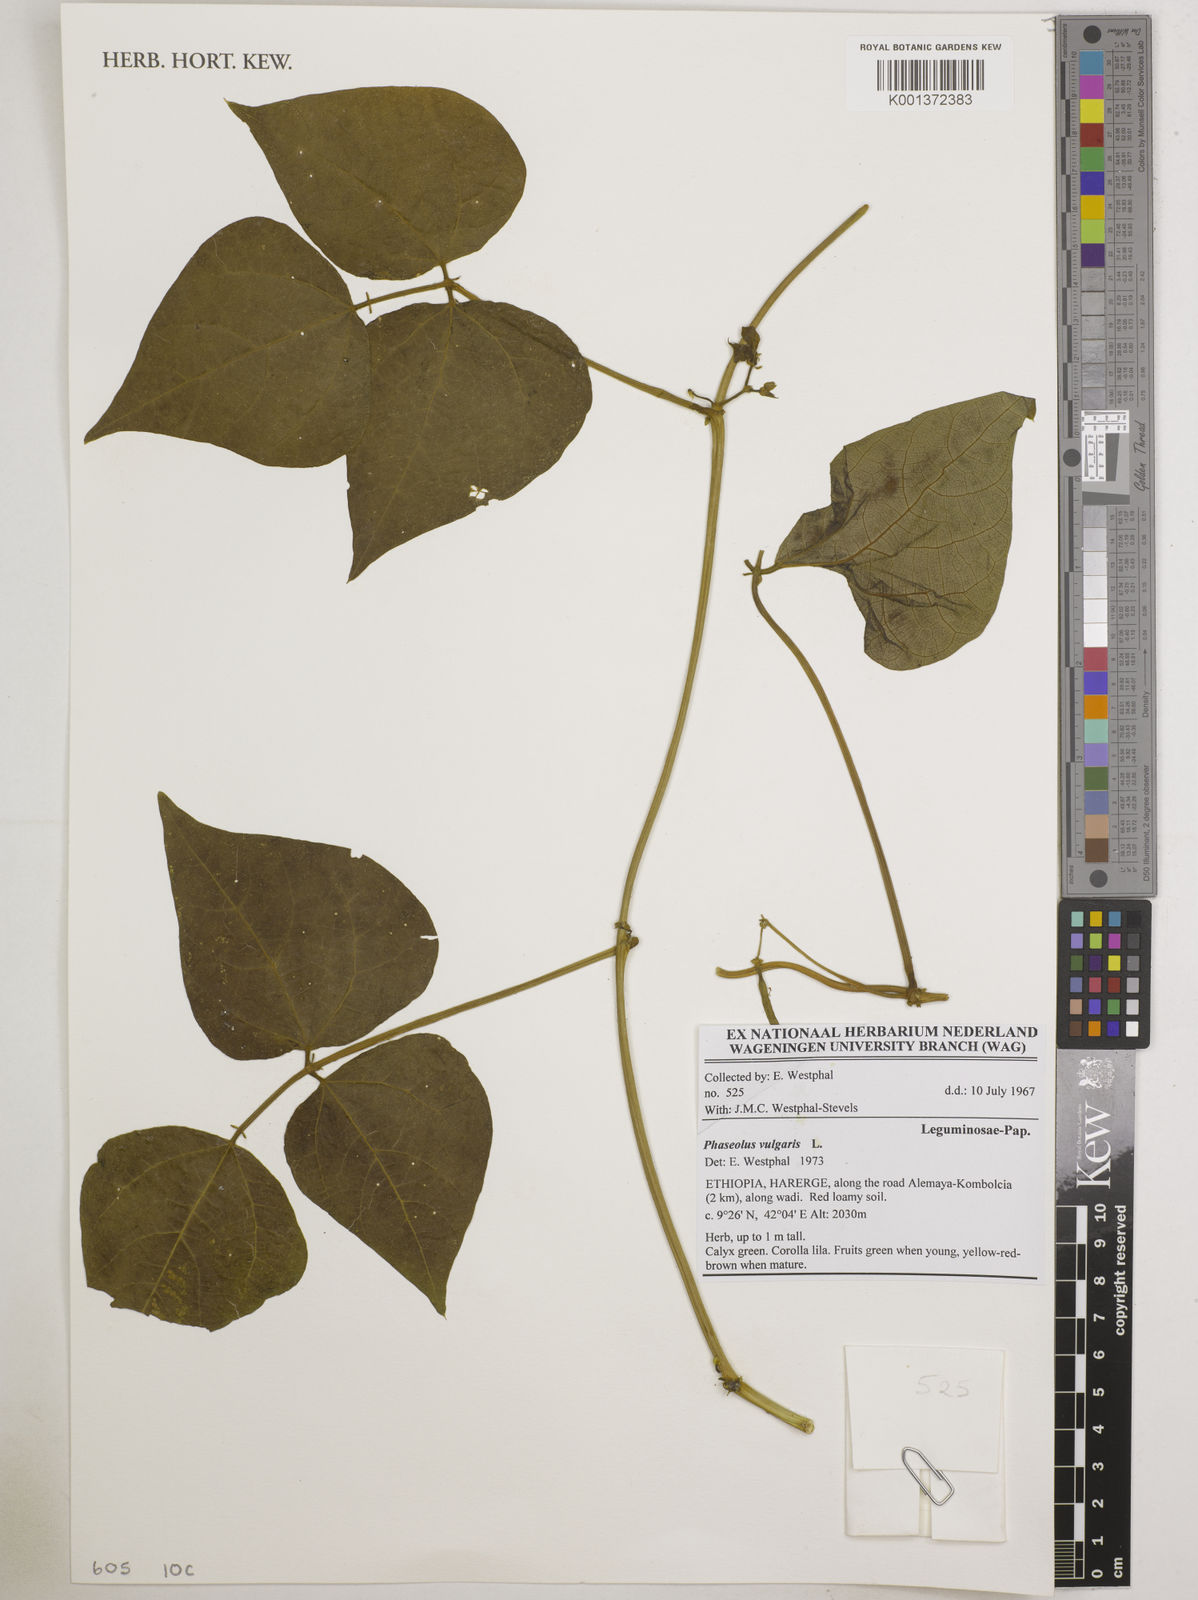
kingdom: Plantae
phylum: Tracheophyta
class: Magnoliopsida
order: Fabales
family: Fabaceae
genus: Phaseolus
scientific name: Phaseolus vulgaris
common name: Bean
